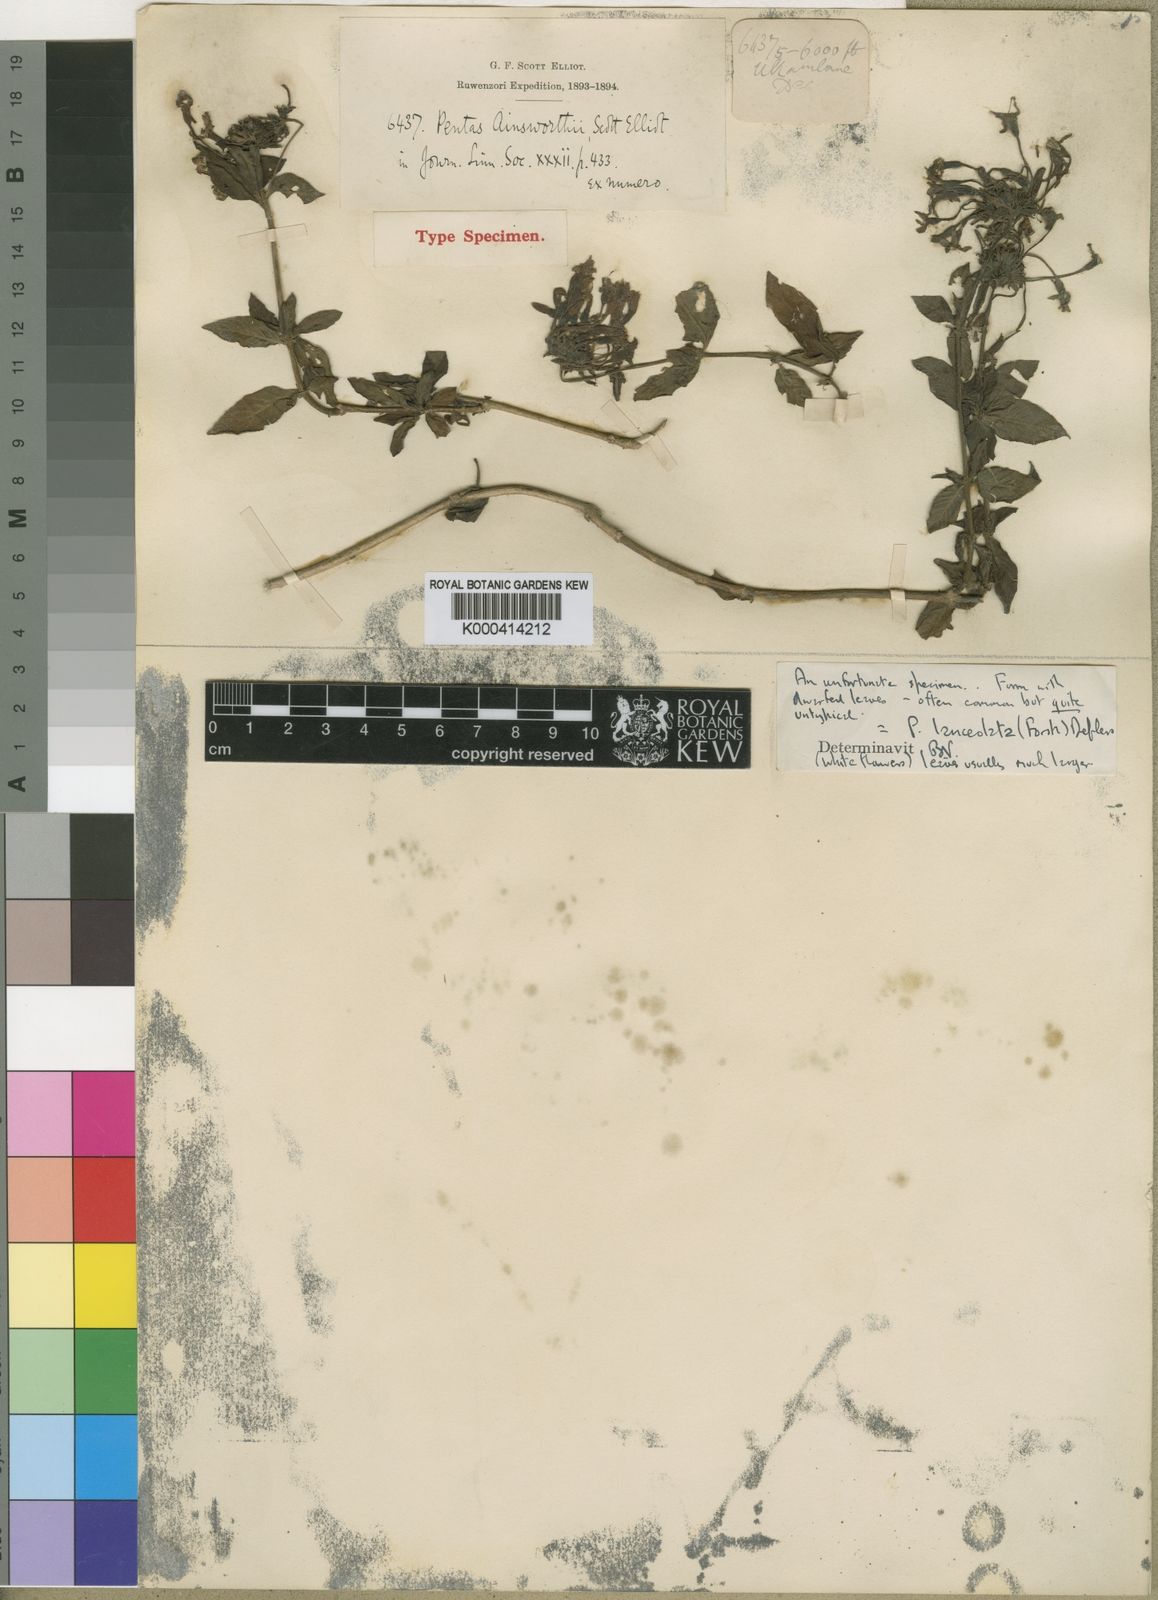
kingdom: Plantae
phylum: Tracheophyta
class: Magnoliopsida
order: Gentianales
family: Rubiaceae
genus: Pentas
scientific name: Pentas lanceolata
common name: Egyptian starcluster
